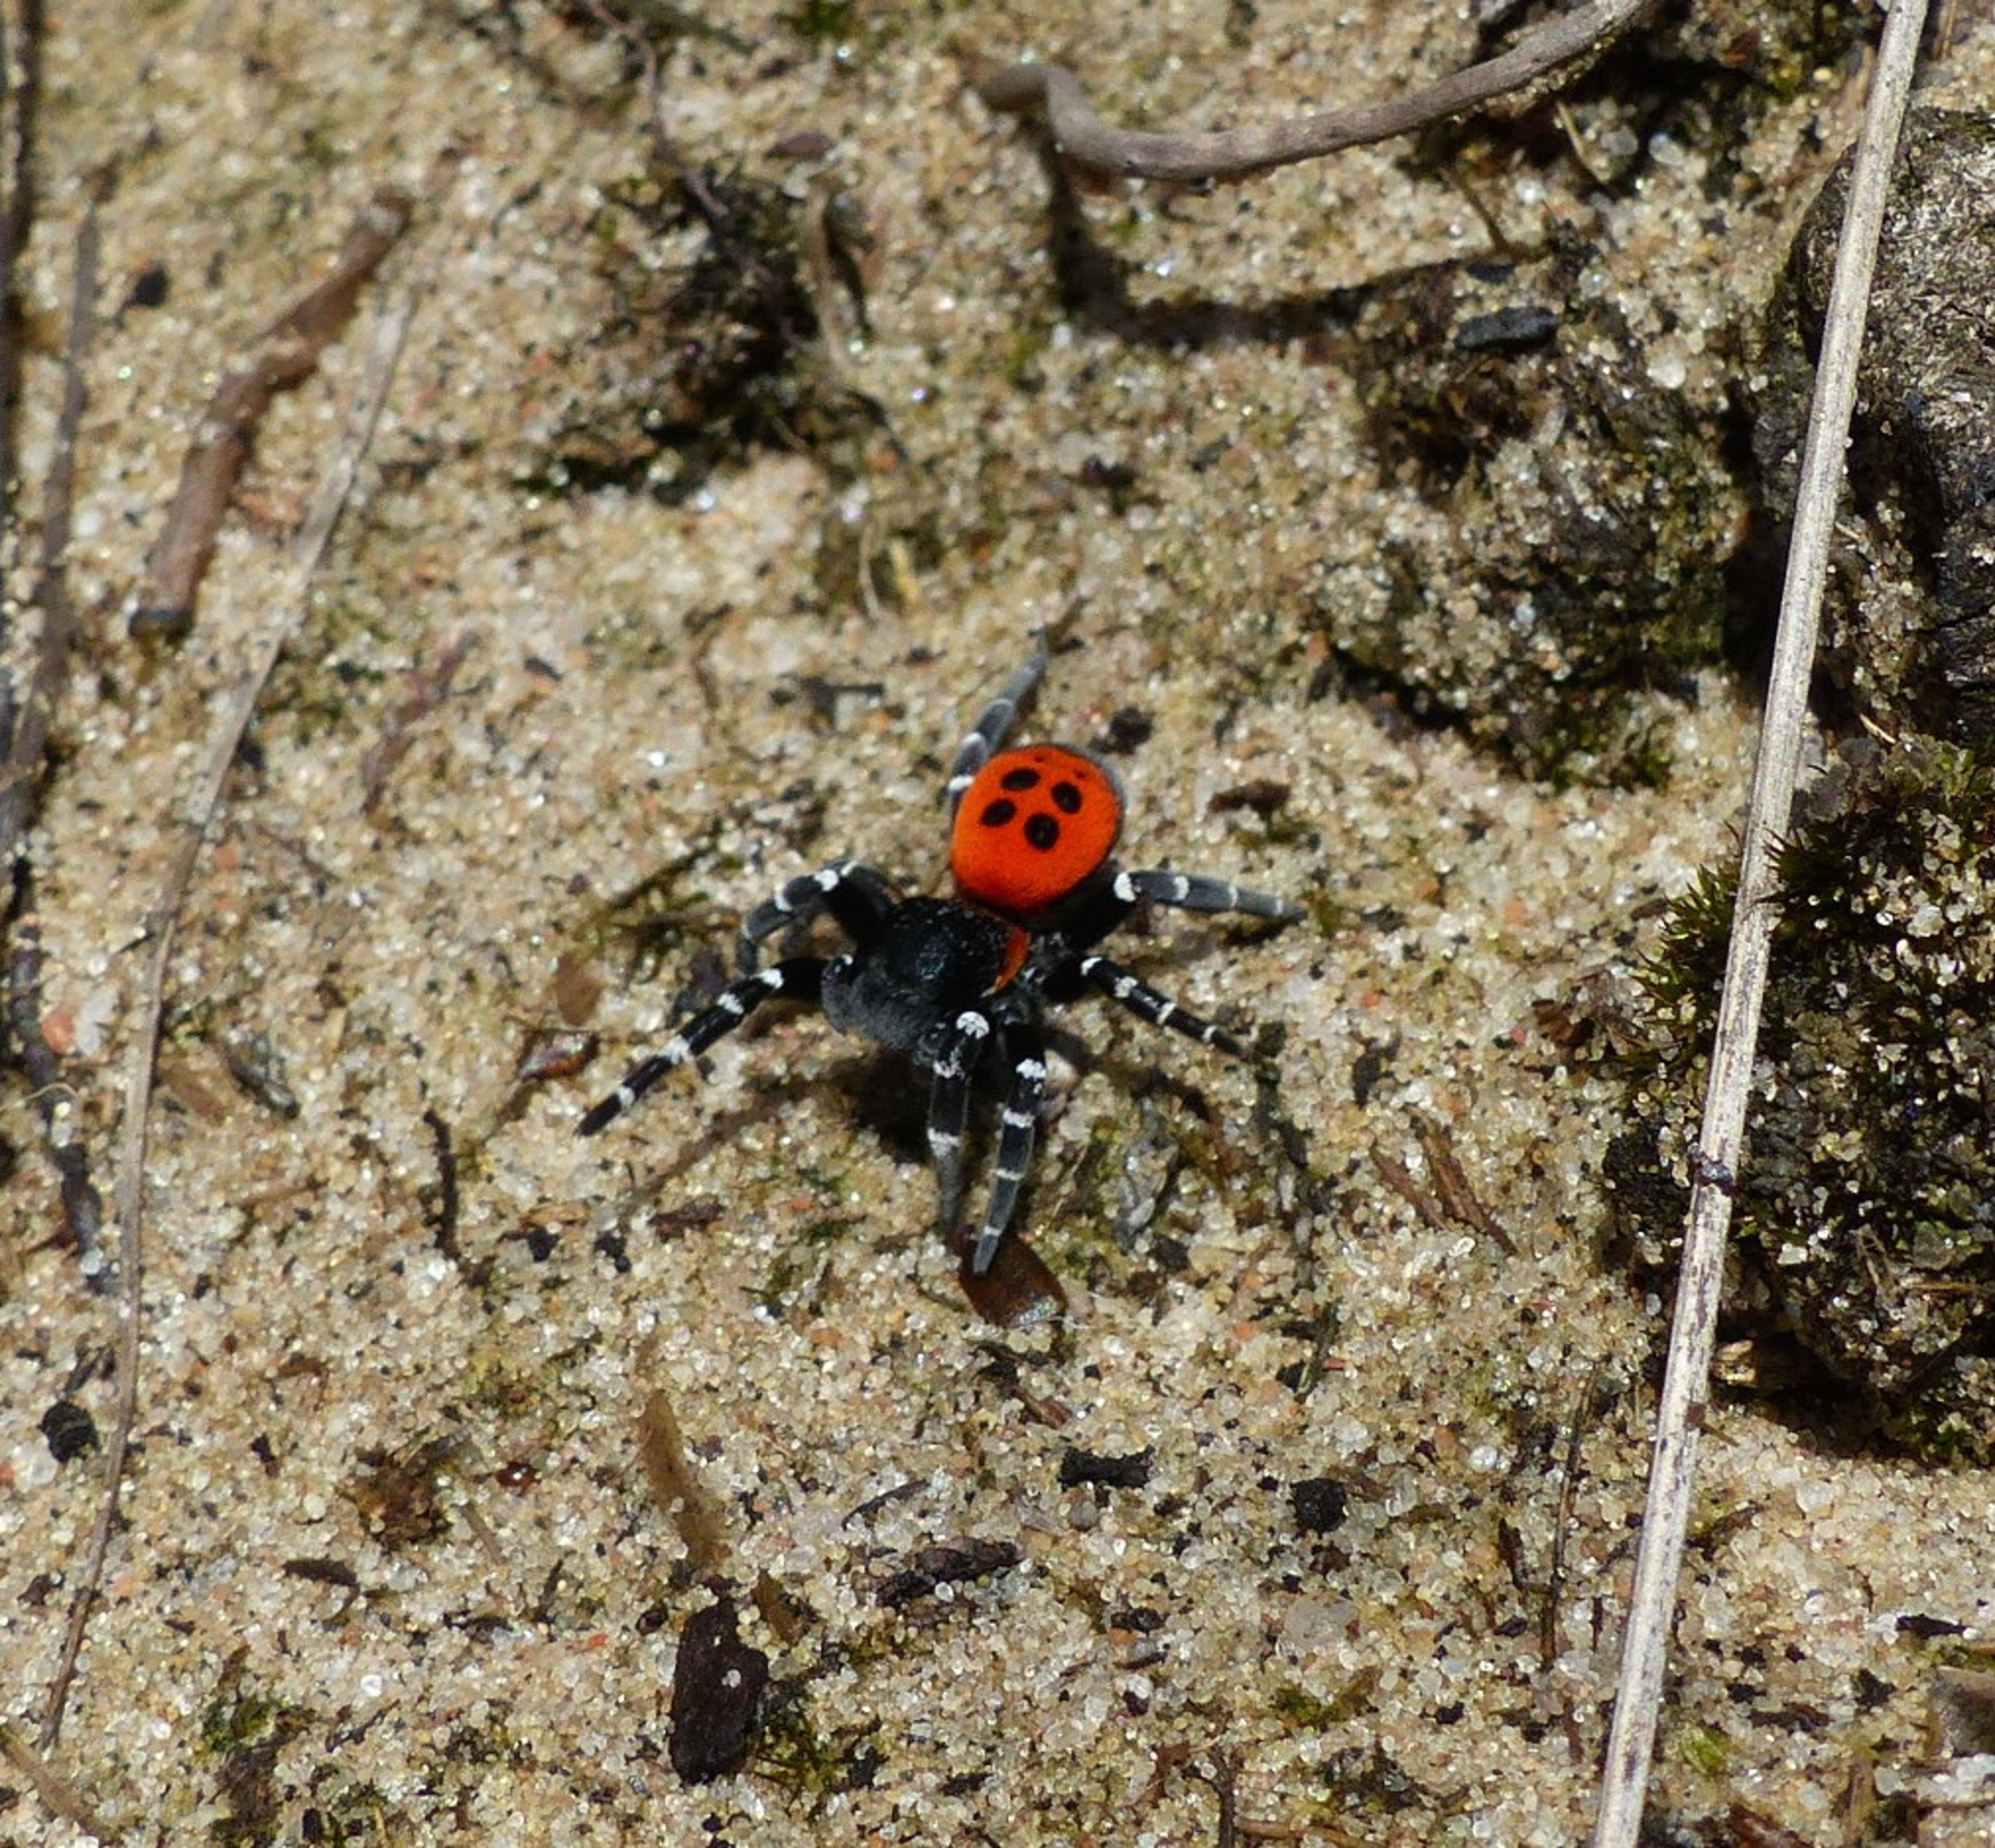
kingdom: Animalia
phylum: Arthropoda
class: Arachnida
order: Araneae
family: Eresidae
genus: Eresus
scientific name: Eresus sandaliatus
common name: Mariehøneedderkop
